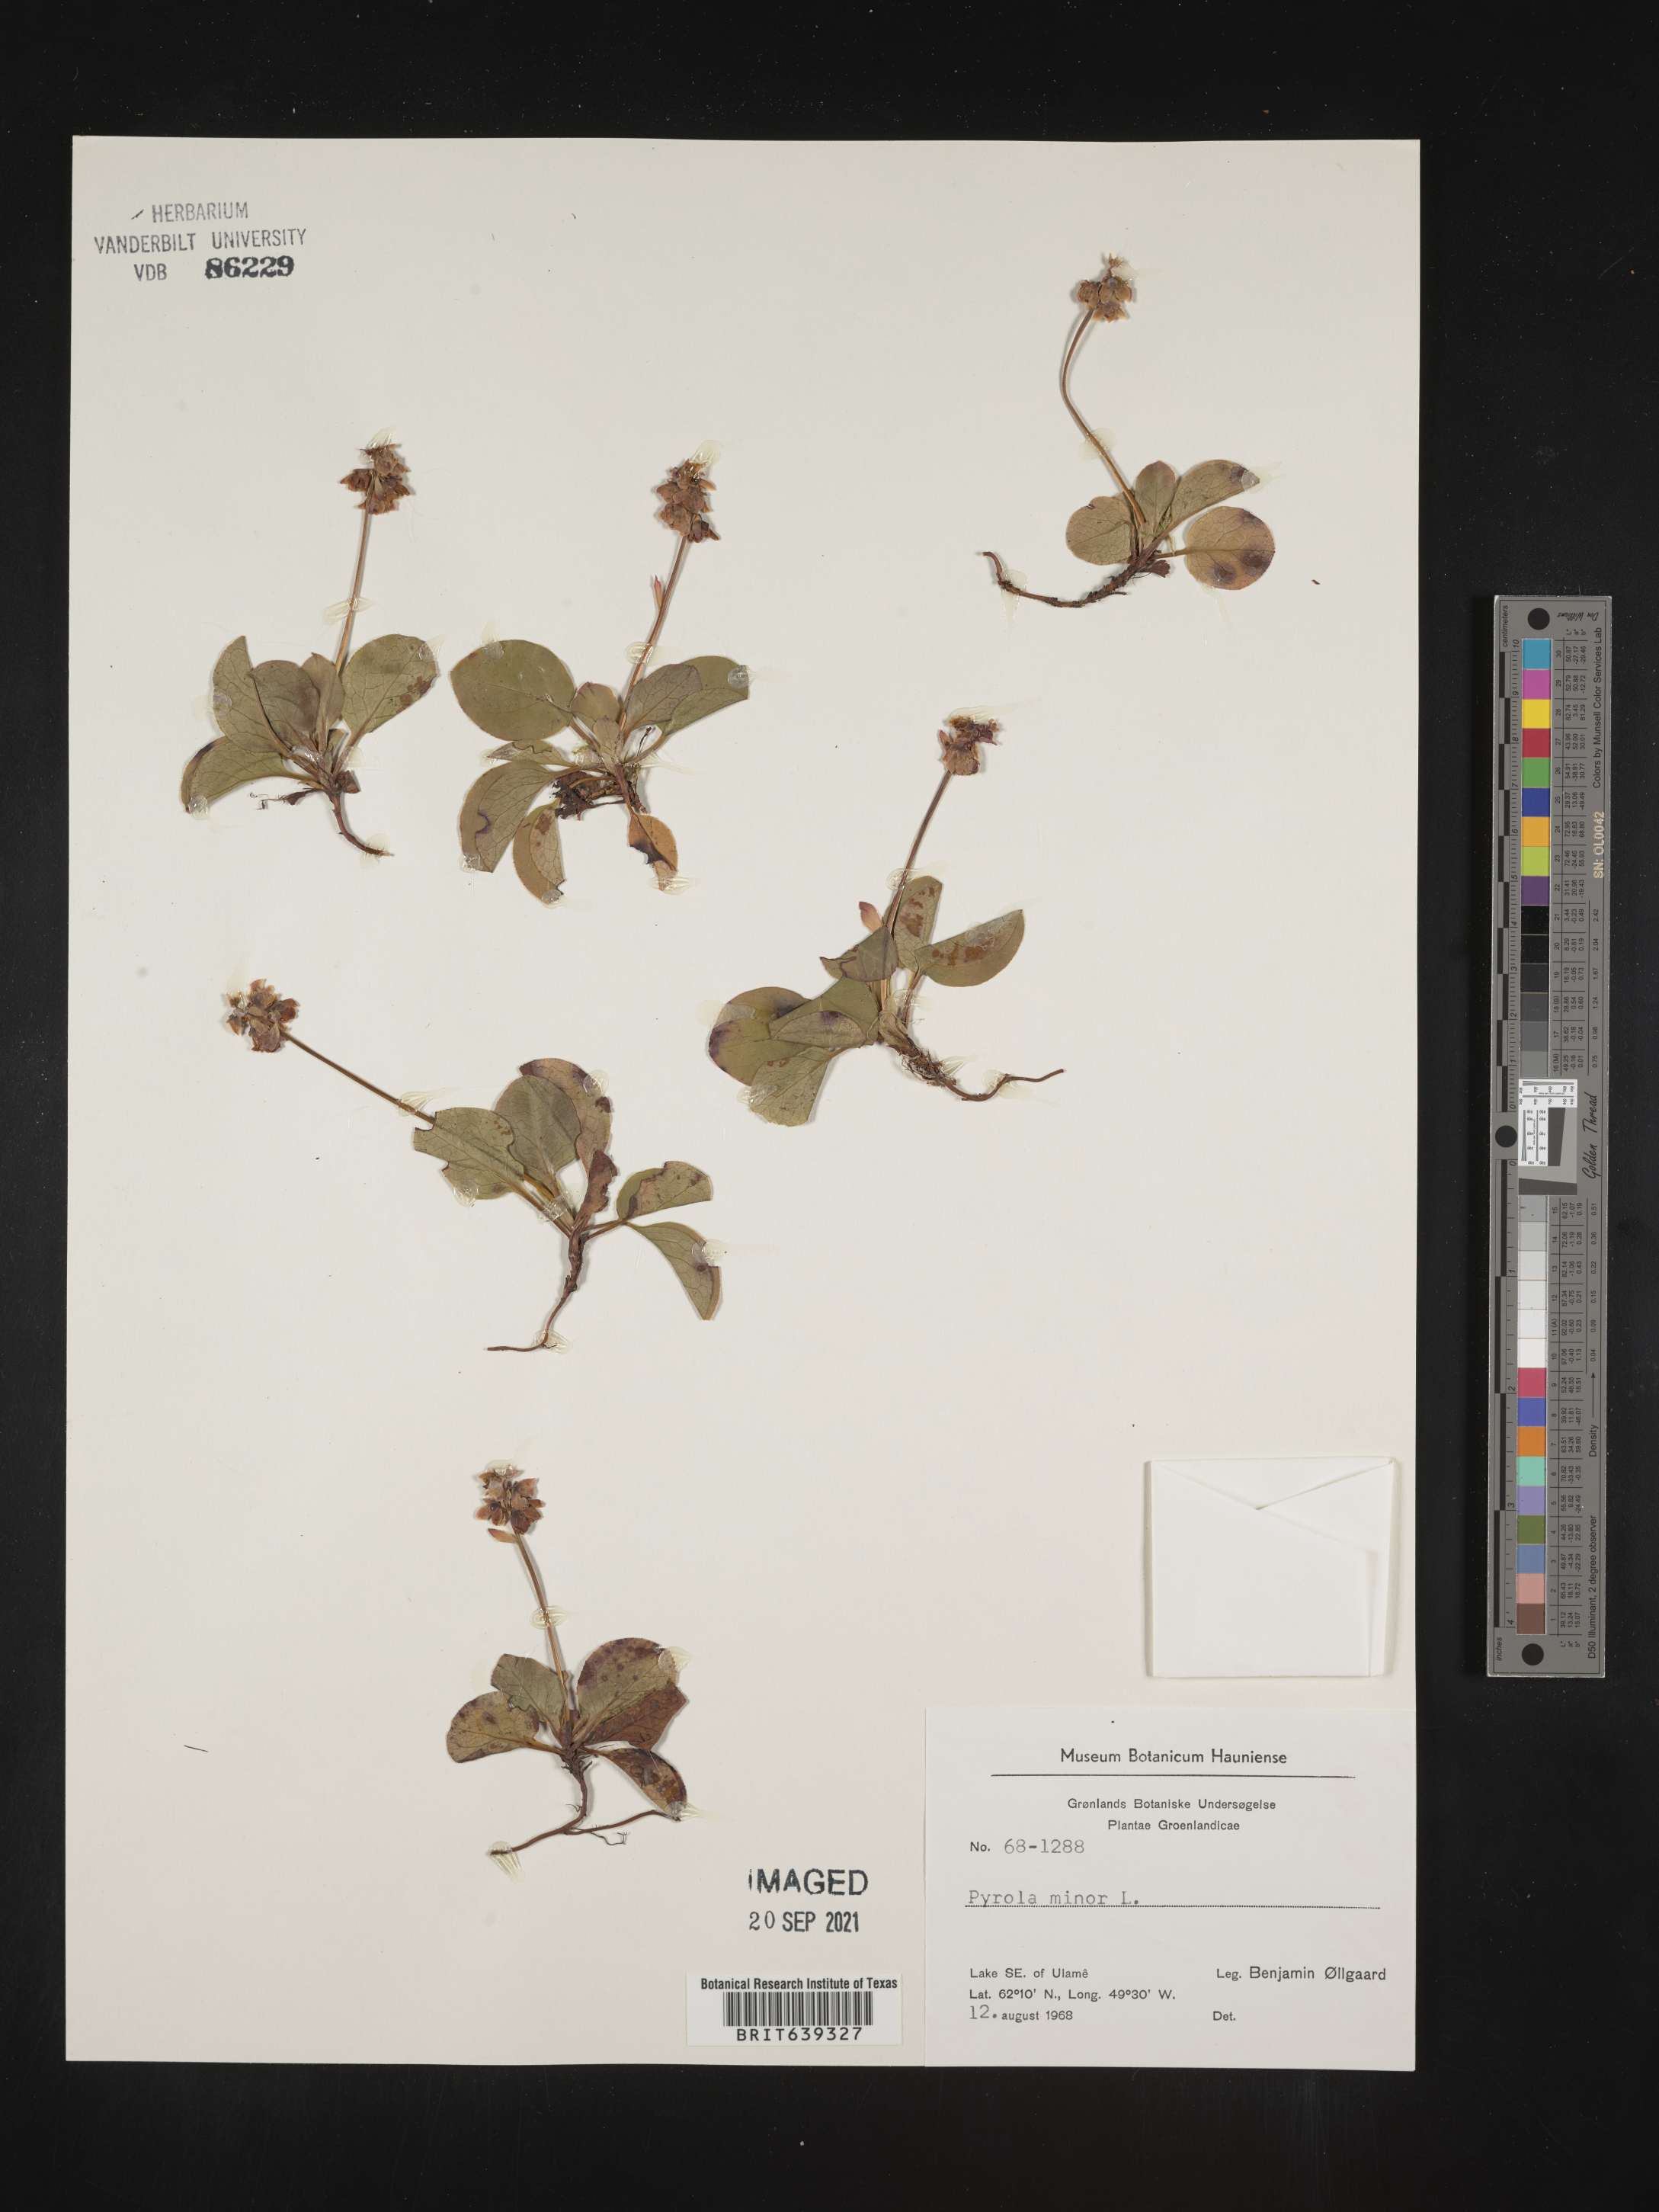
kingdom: Plantae
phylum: Tracheophyta
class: Magnoliopsida
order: Ericales
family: Ericaceae
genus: Pyrola
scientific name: Pyrola
